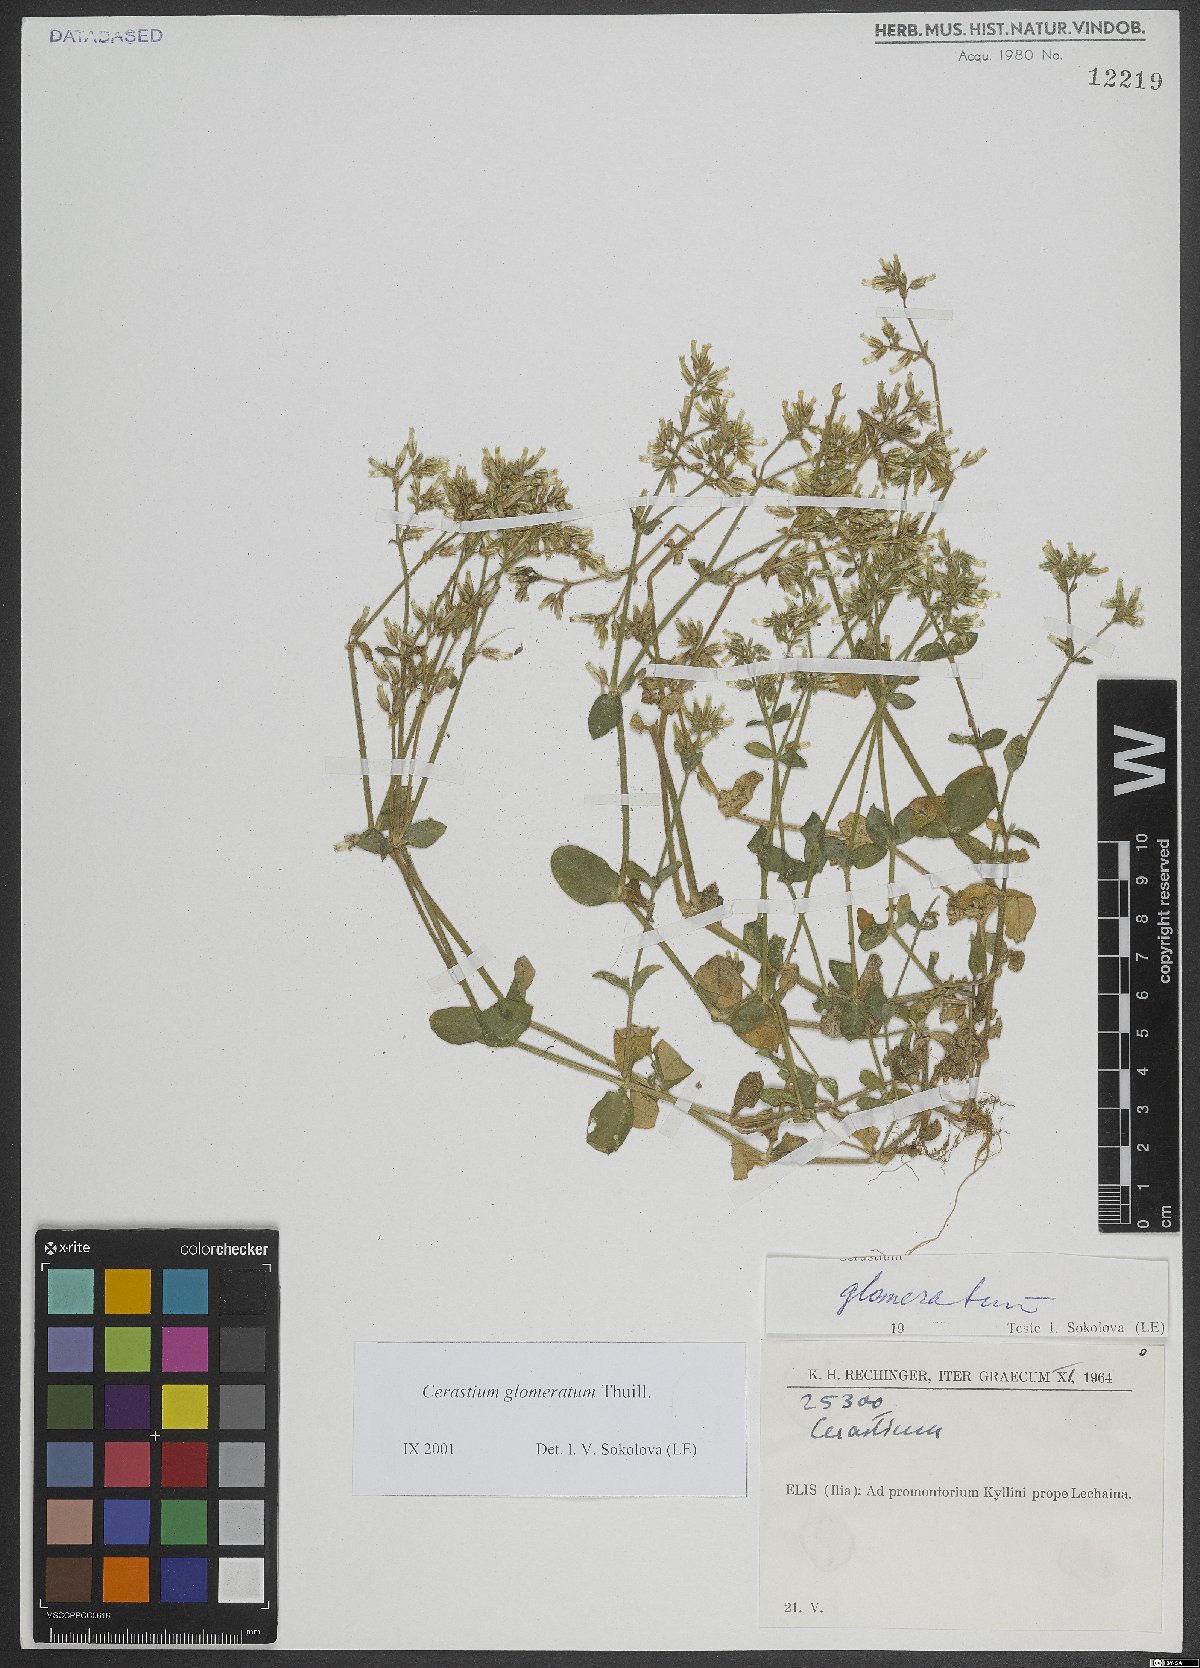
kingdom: Plantae
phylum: Tracheophyta
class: Magnoliopsida
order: Caryophyllales
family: Caryophyllaceae
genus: Cerastium
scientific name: Cerastium glomeratum
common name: Sticky chickweed
